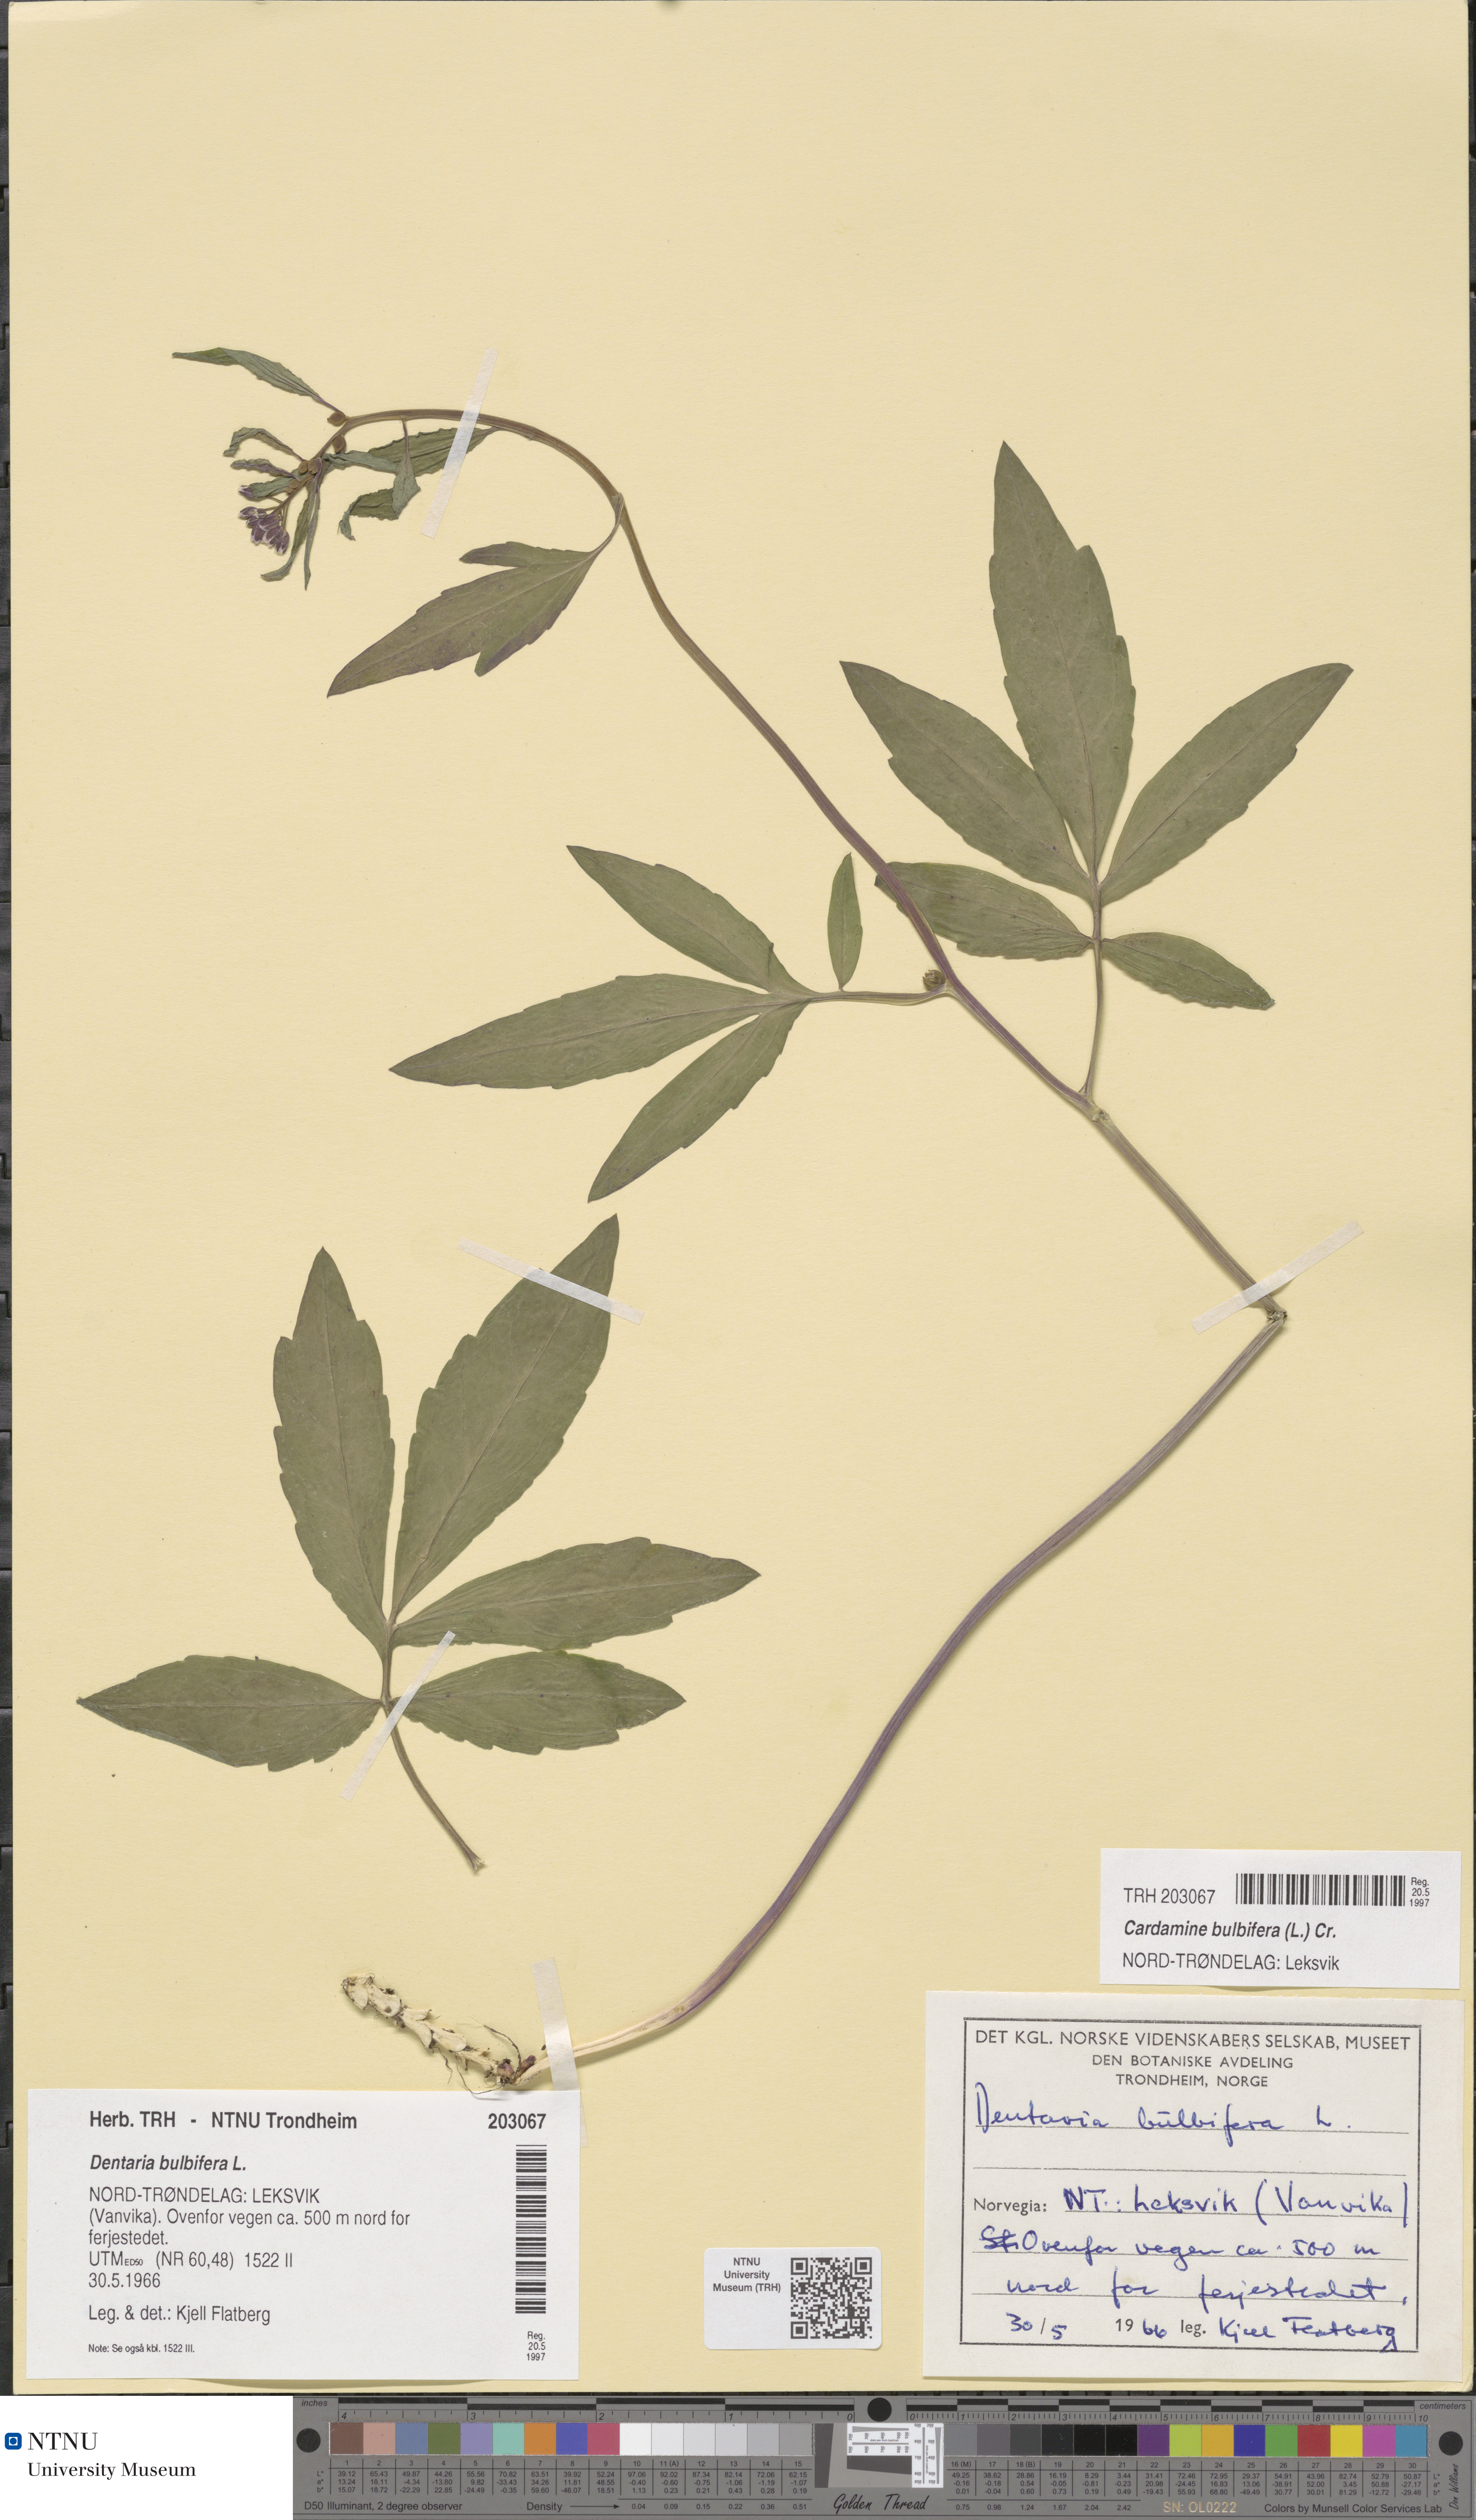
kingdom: Plantae
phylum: Tracheophyta
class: Magnoliopsida
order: Brassicales
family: Brassicaceae
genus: Cardamine
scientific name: Cardamine bulbifera
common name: Coralroot bittercress
